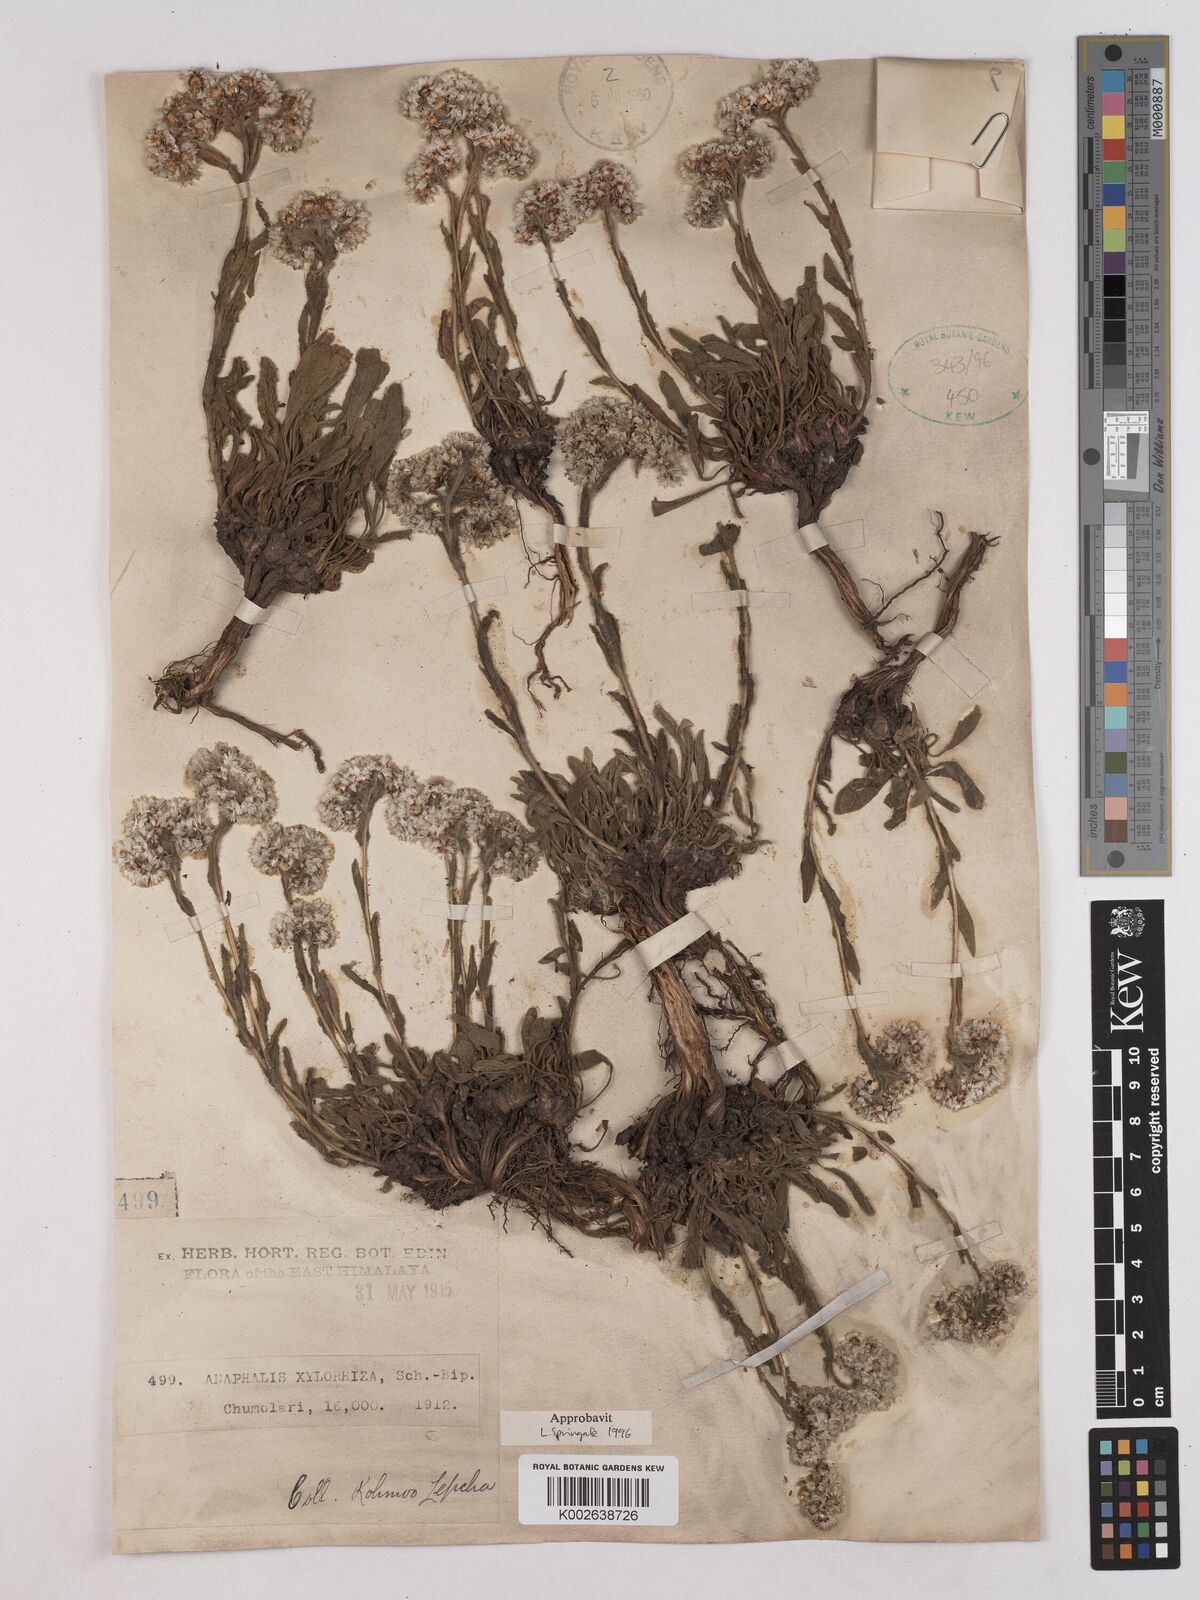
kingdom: Plantae
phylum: Tracheophyta
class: Magnoliopsida
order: Asterales
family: Asteraceae
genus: Anaphalis
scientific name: Anaphalis xylorhiza
